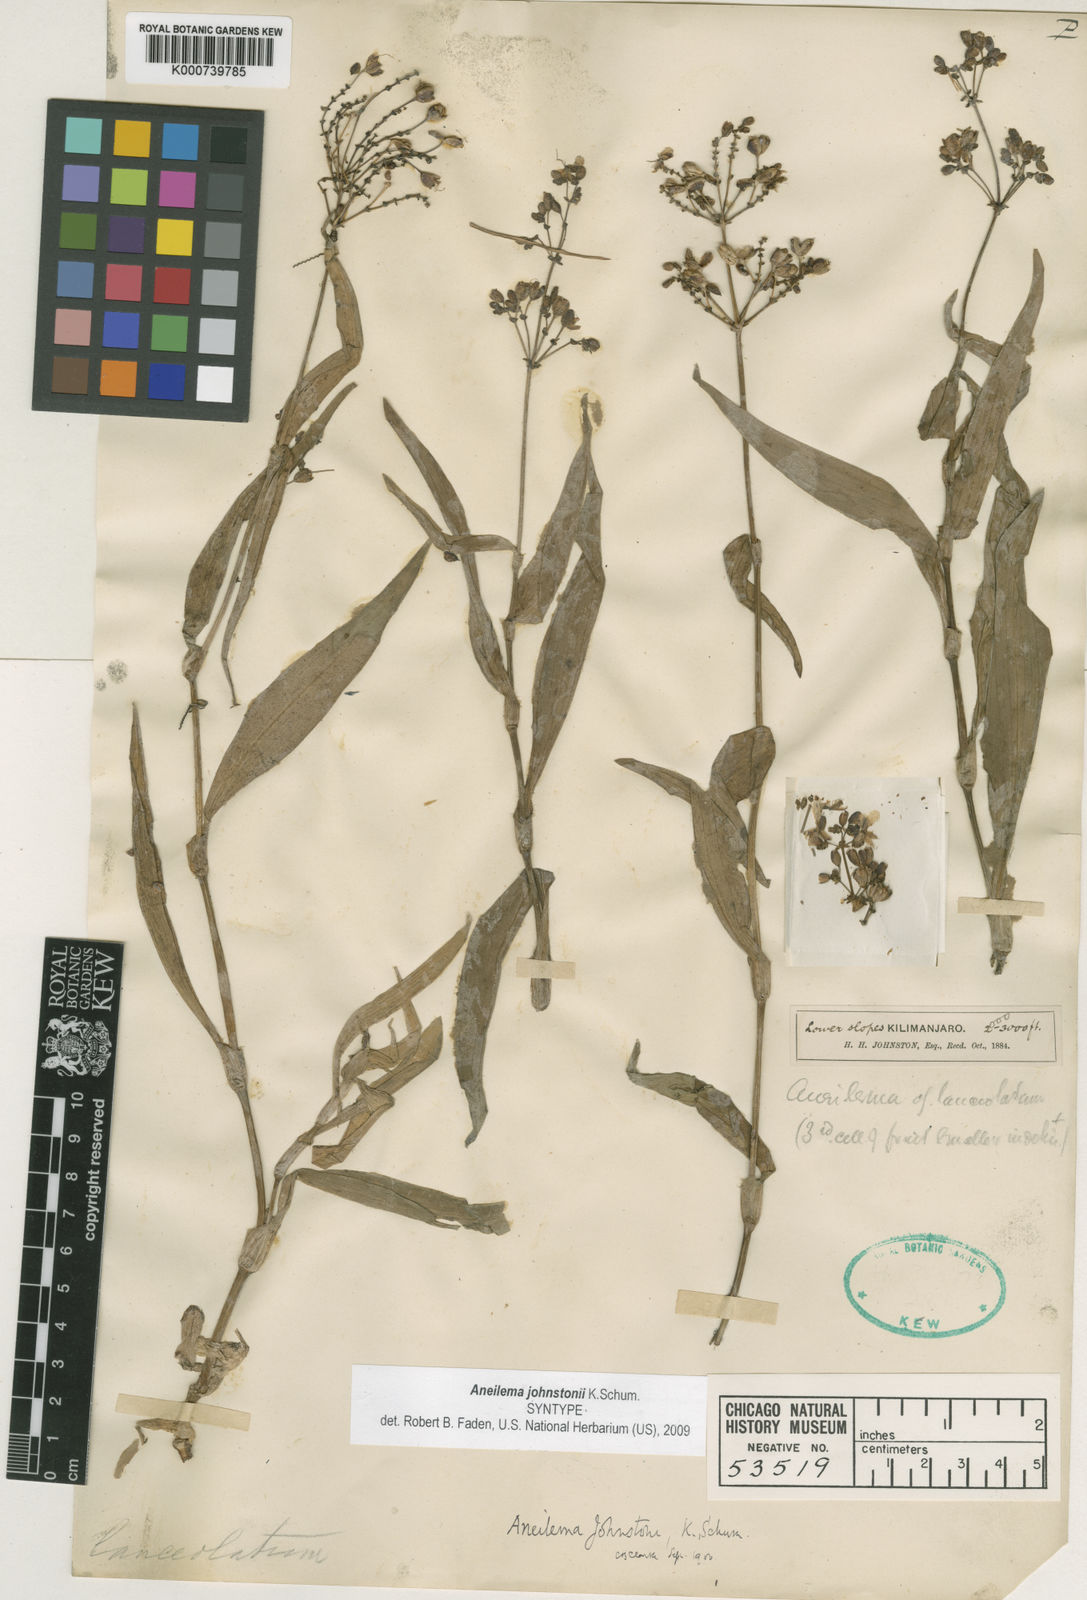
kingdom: Plantae
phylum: Tracheophyta
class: Liliopsida
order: Commelinales
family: Commelinaceae
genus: Aneilema
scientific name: Aneilema johnstonii
